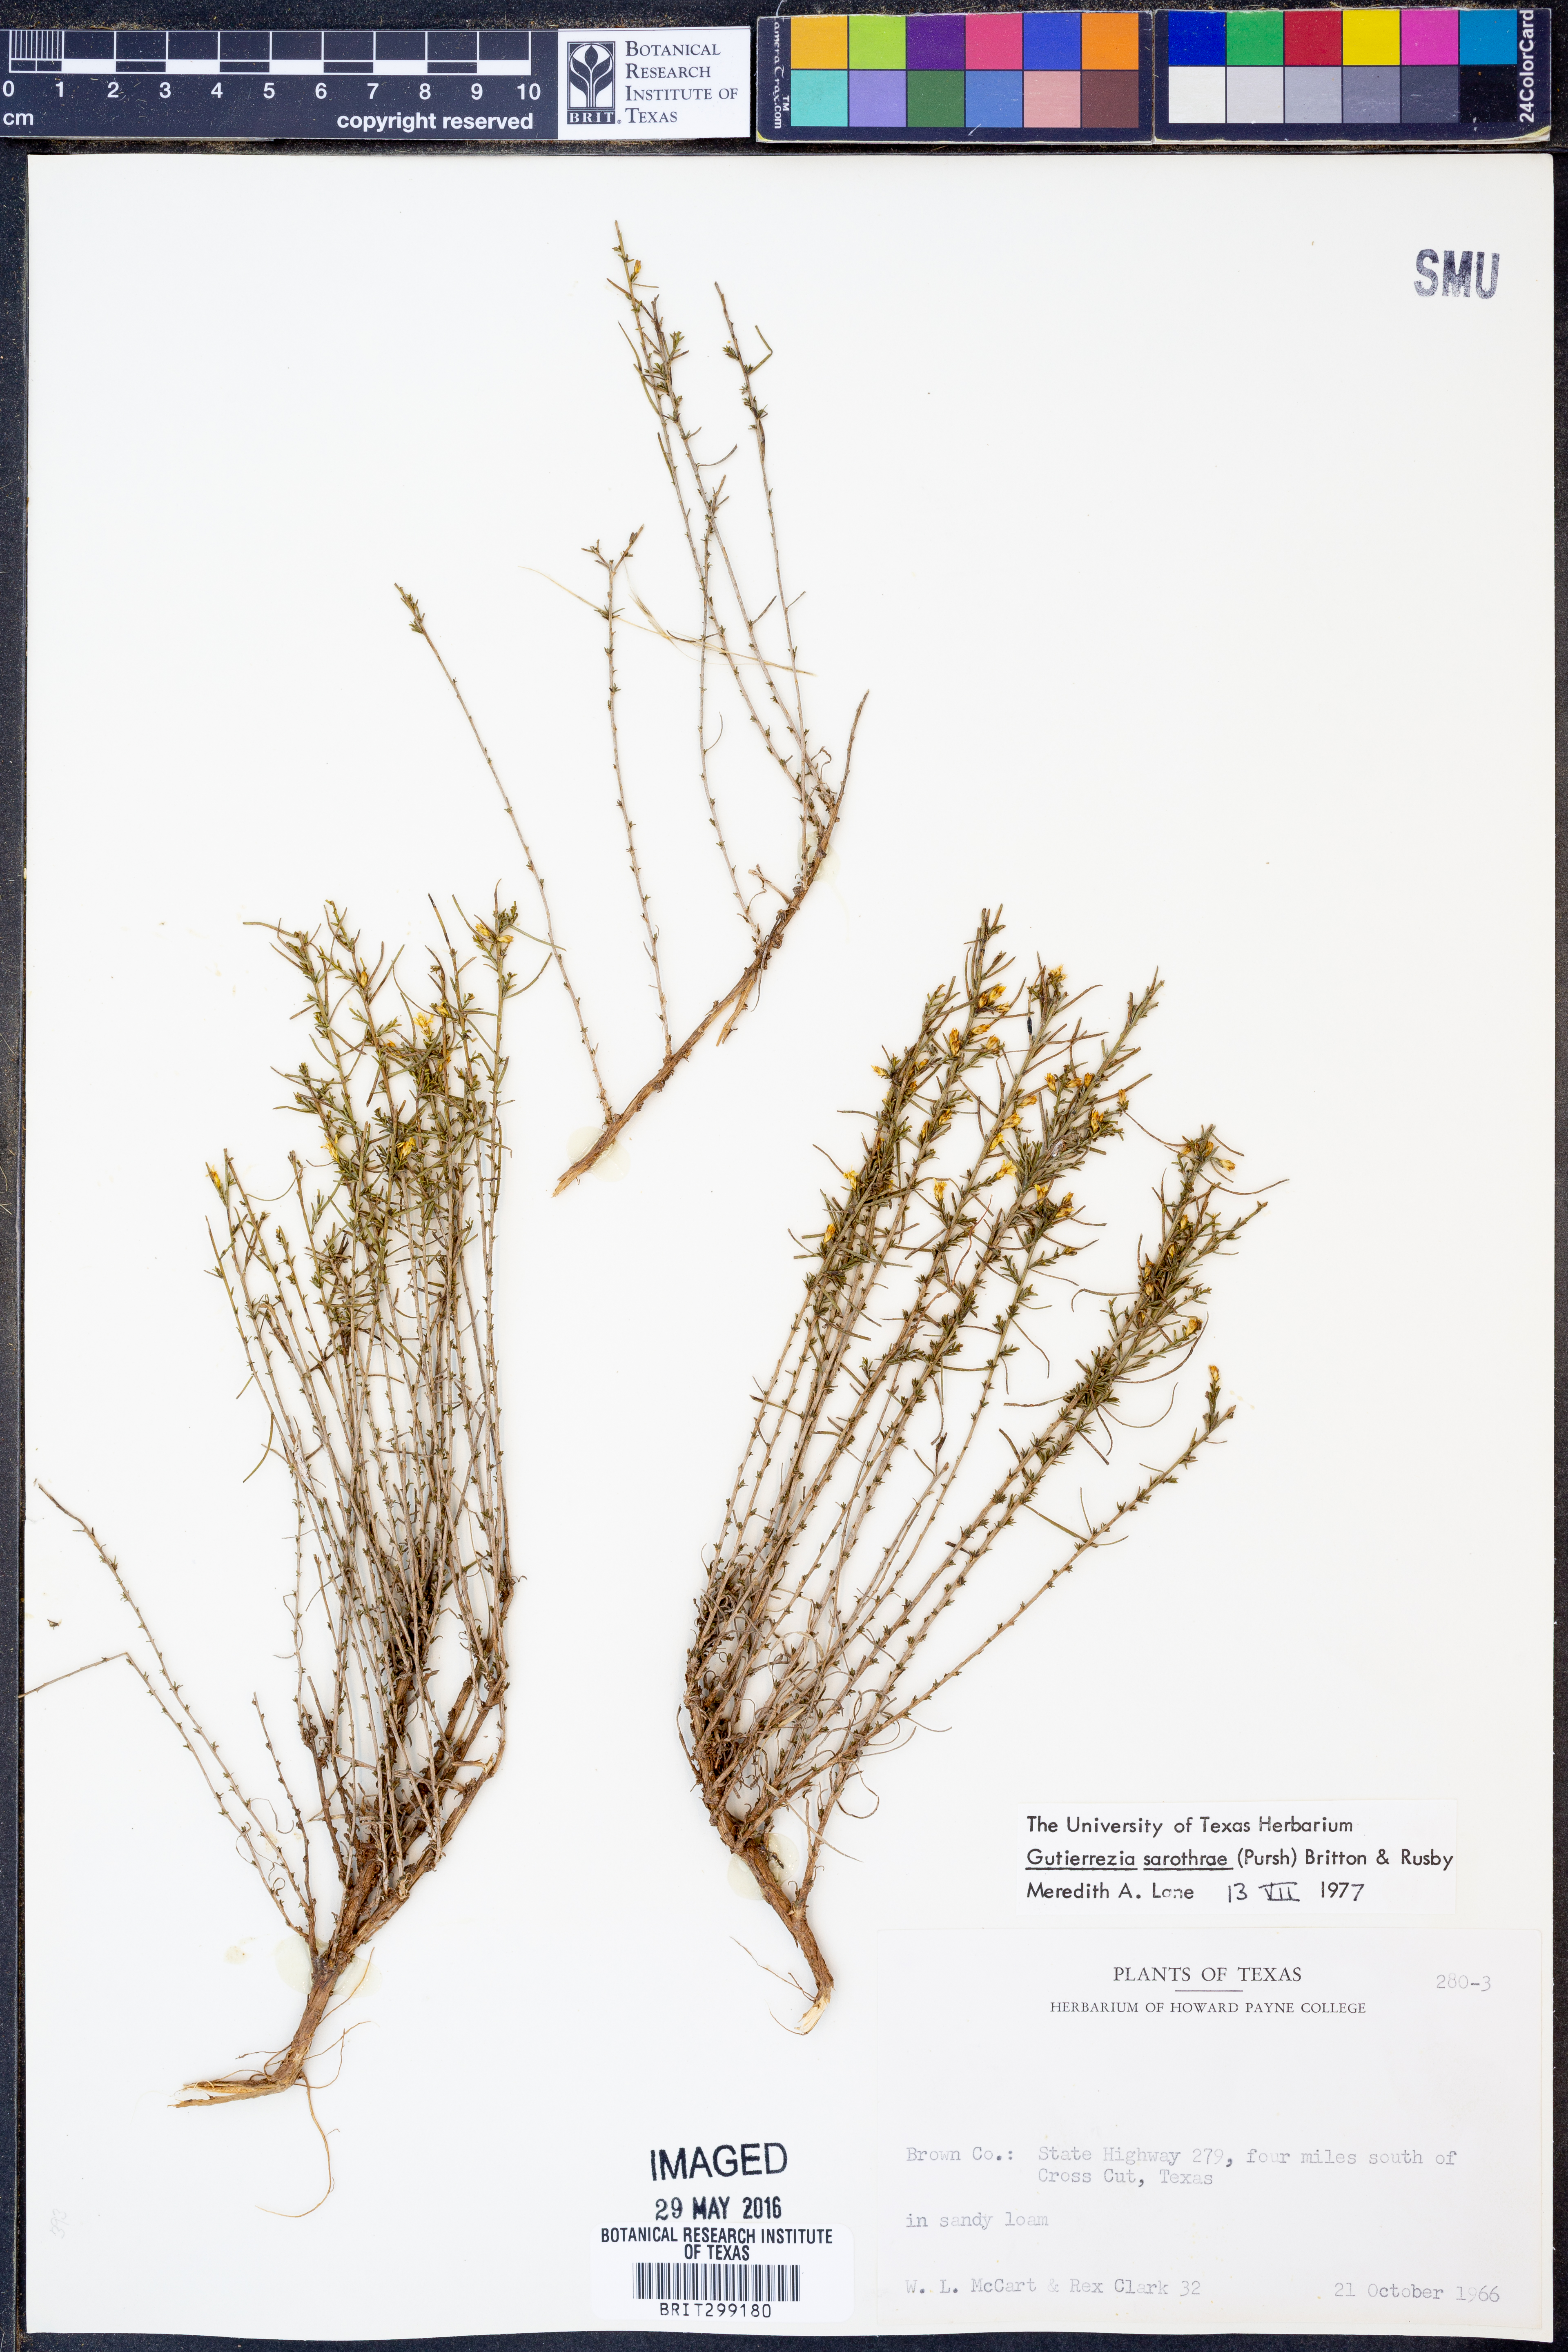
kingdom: Plantae
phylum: Tracheophyta
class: Magnoliopsida
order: Asterales
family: Asteraceae
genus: Gutierrezia
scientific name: Gutierrezia sarothrae
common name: Broom snakeweed
